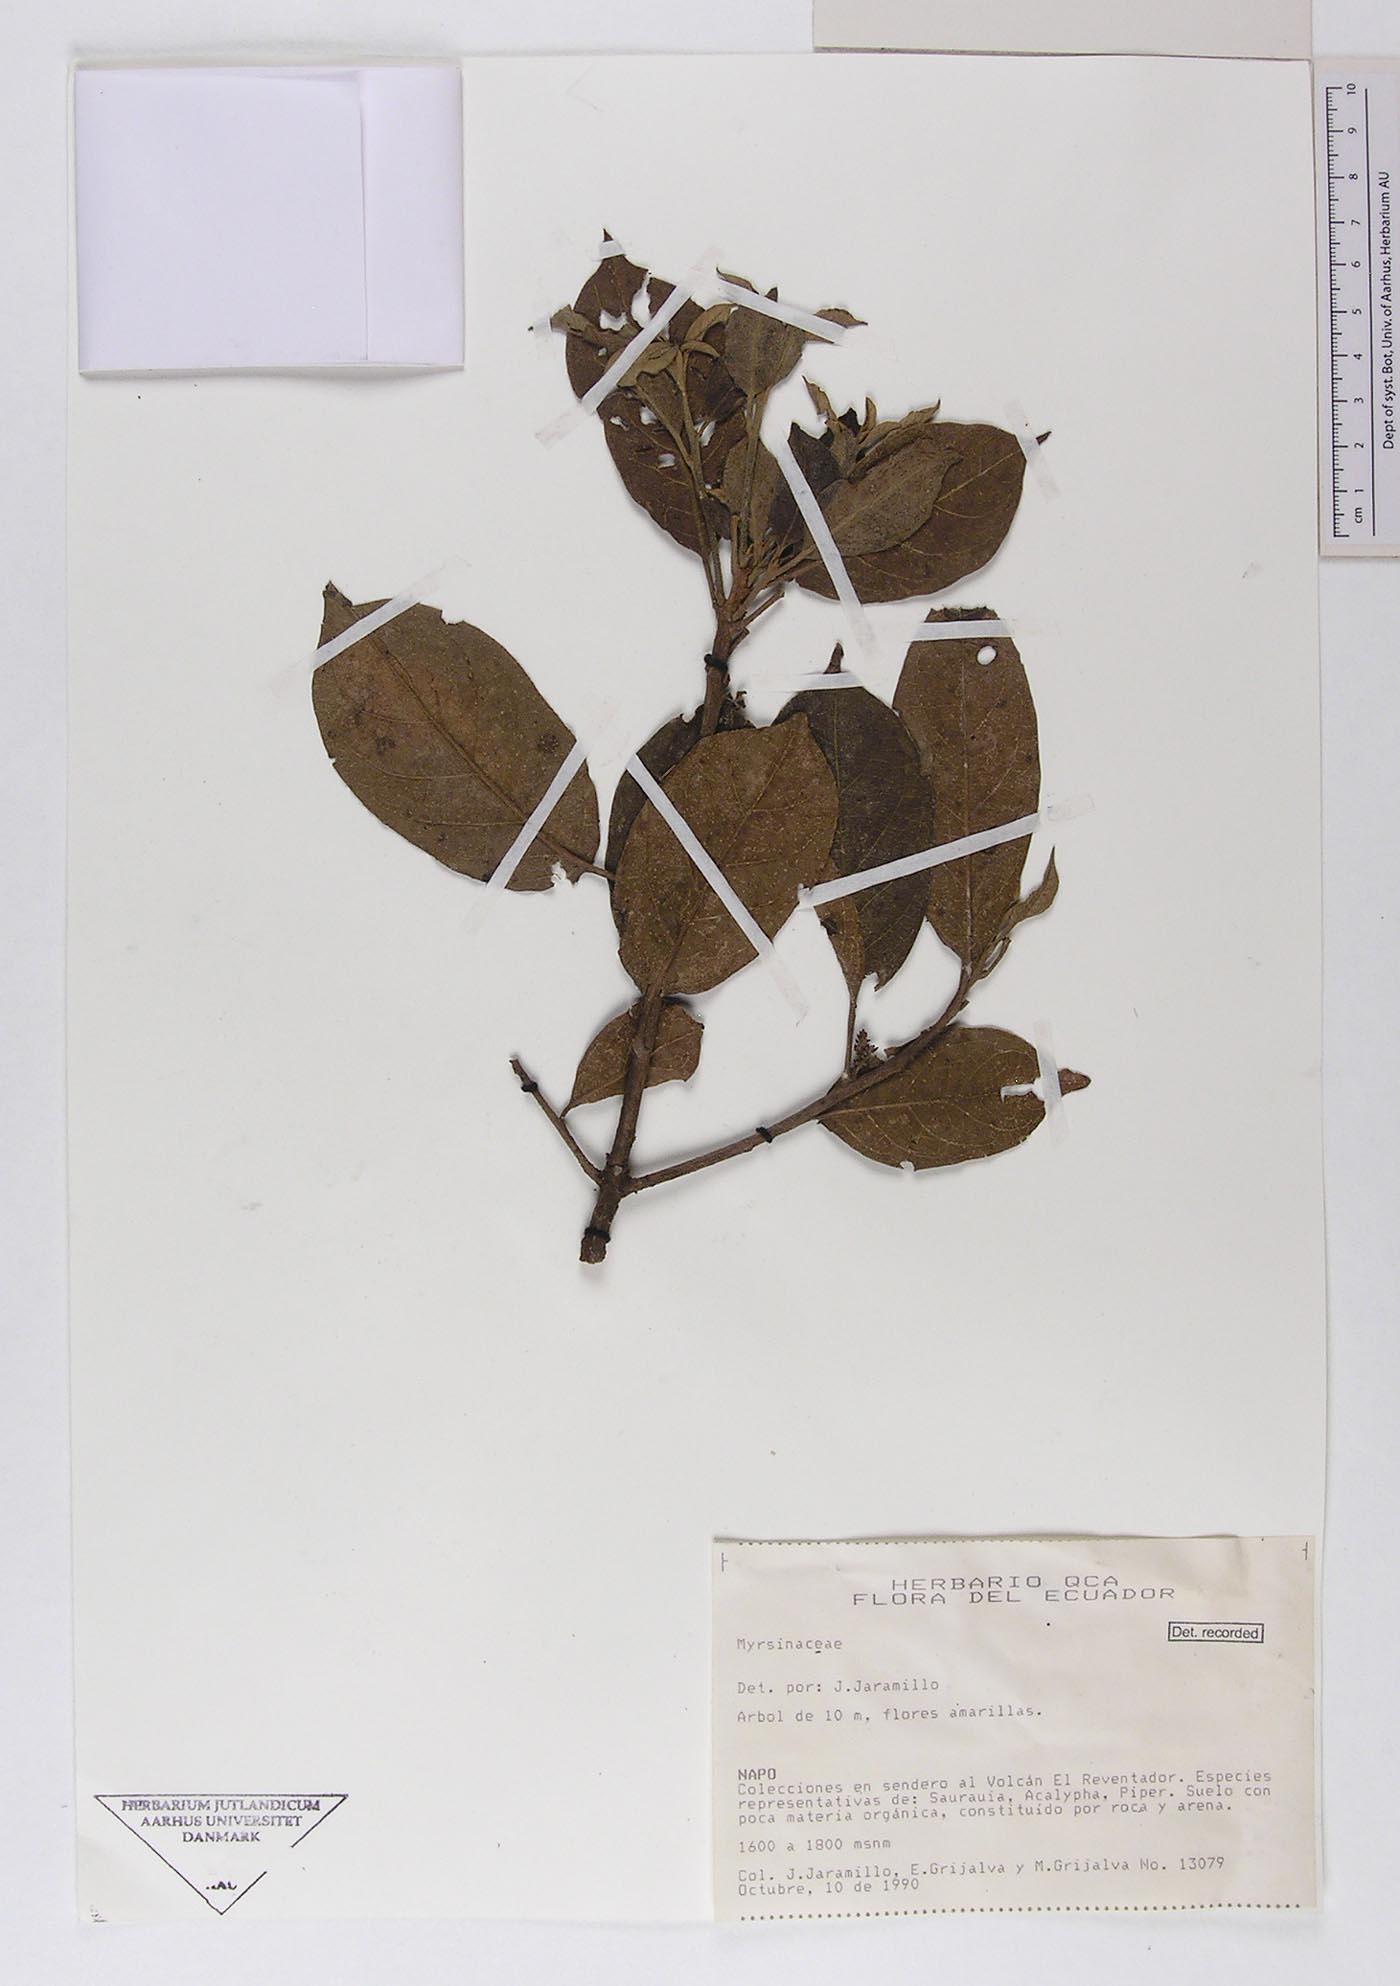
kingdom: Plantae
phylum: Tracheophyta
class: Magnoliopsida
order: Ericales
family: Primulaceae
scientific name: Primulaceae
